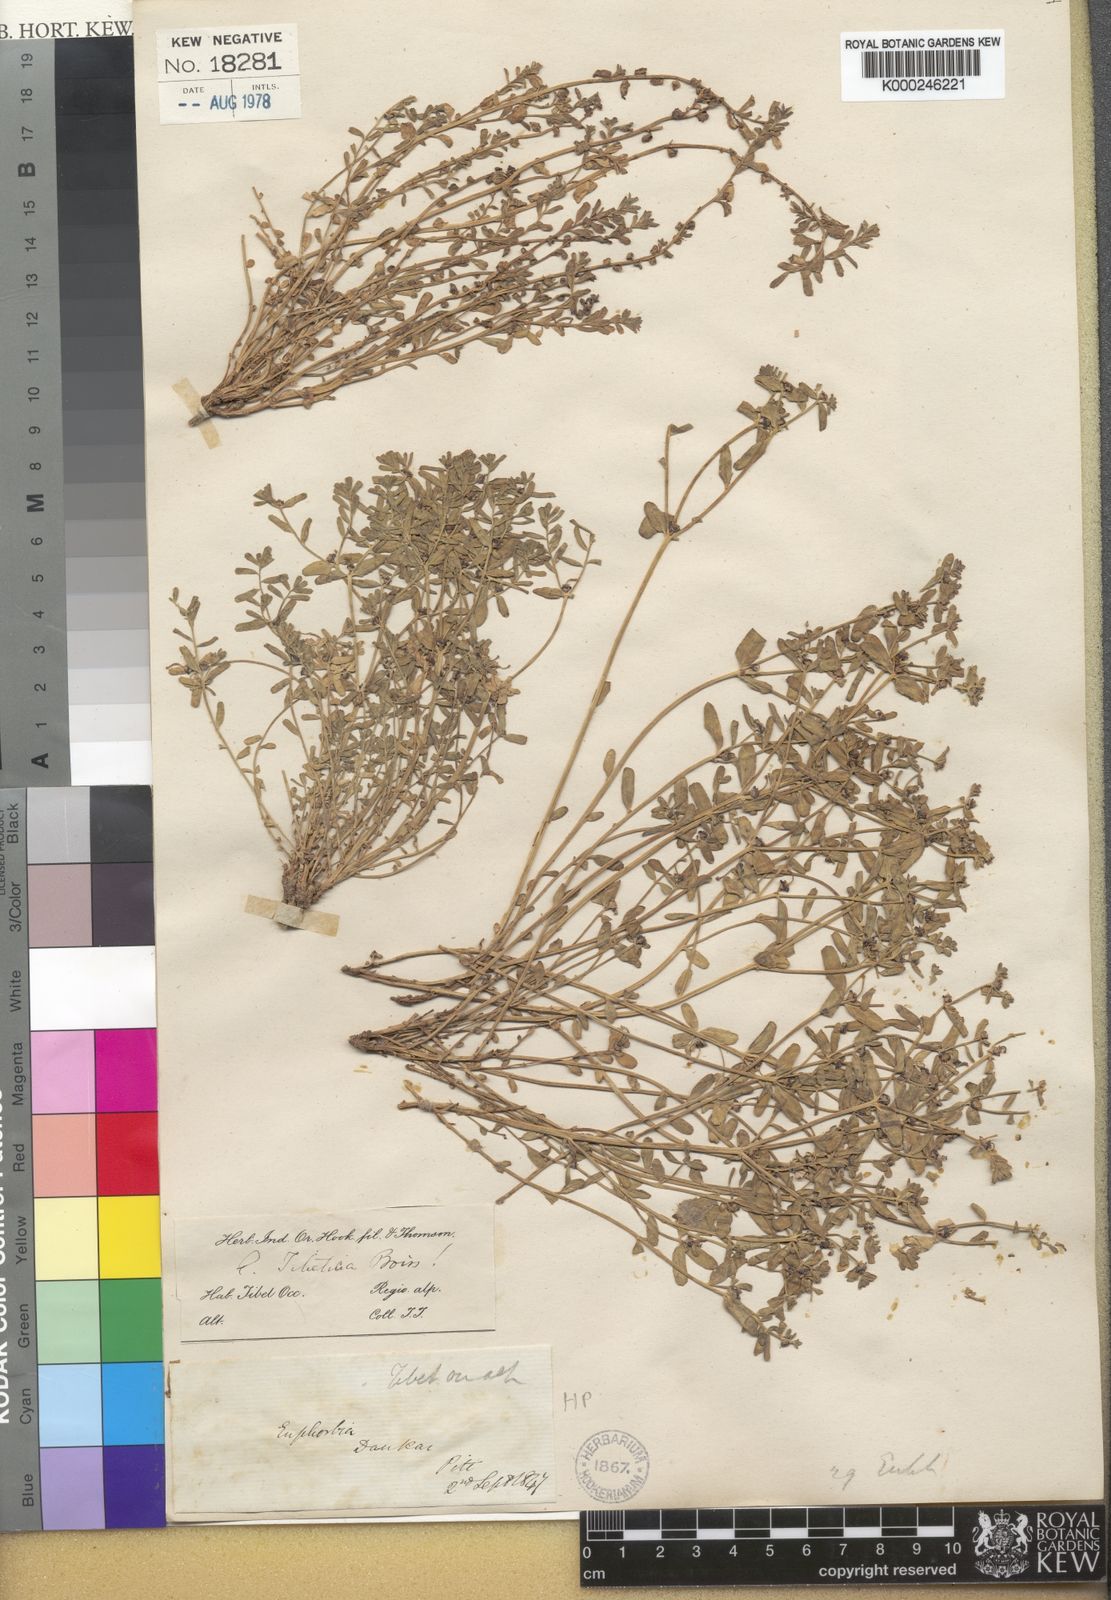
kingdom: Plantae
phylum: Tracheophyta
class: Magnoliopsida
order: Malpighiales
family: Euphorbiaceae
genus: Euphorbia
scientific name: Euphorbia tibetica
